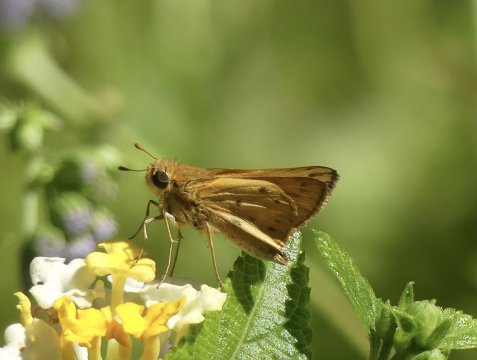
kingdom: Animalia
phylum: Arthropoda
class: Insecta
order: Lepidoptera
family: Hesperiidae
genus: Hylephila
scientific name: Hylephila phyleus
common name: Fiery Skipper
